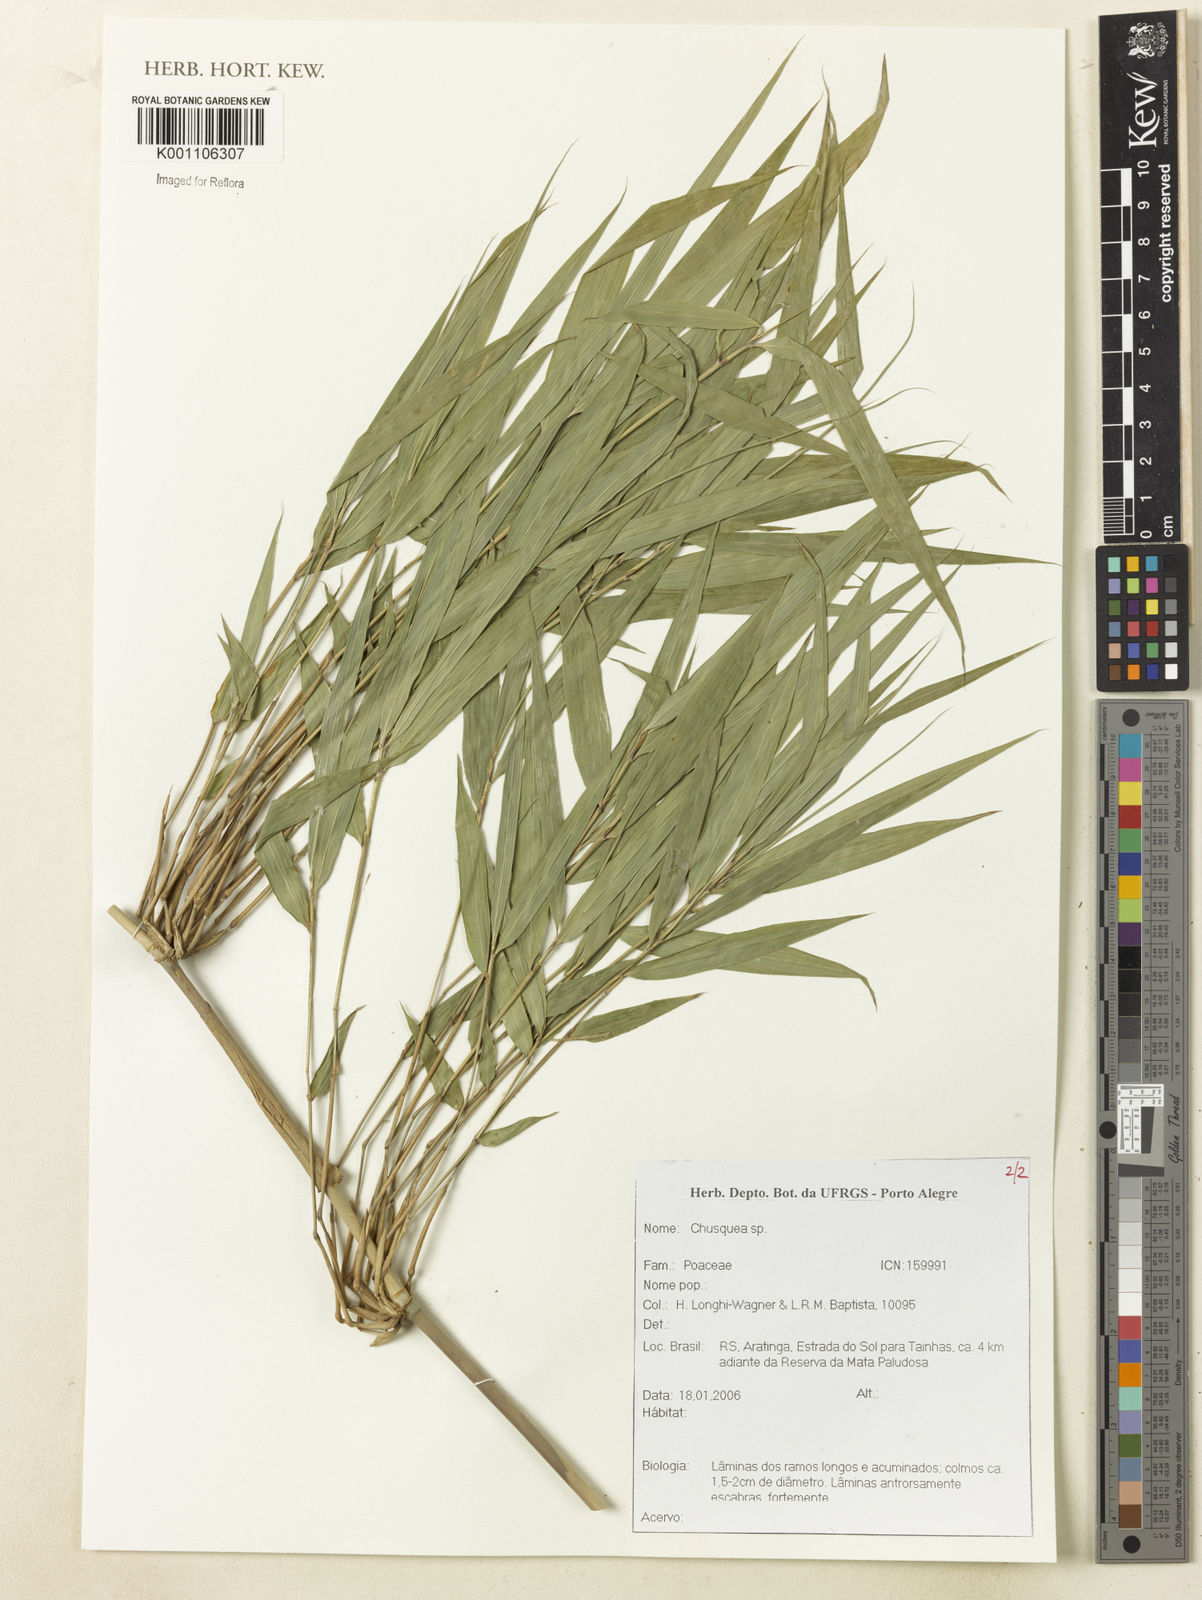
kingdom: Plantae
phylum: Tracheophyta
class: Liliopsida
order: Poales
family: Poaceae
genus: Chusquea
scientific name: Chusquea
